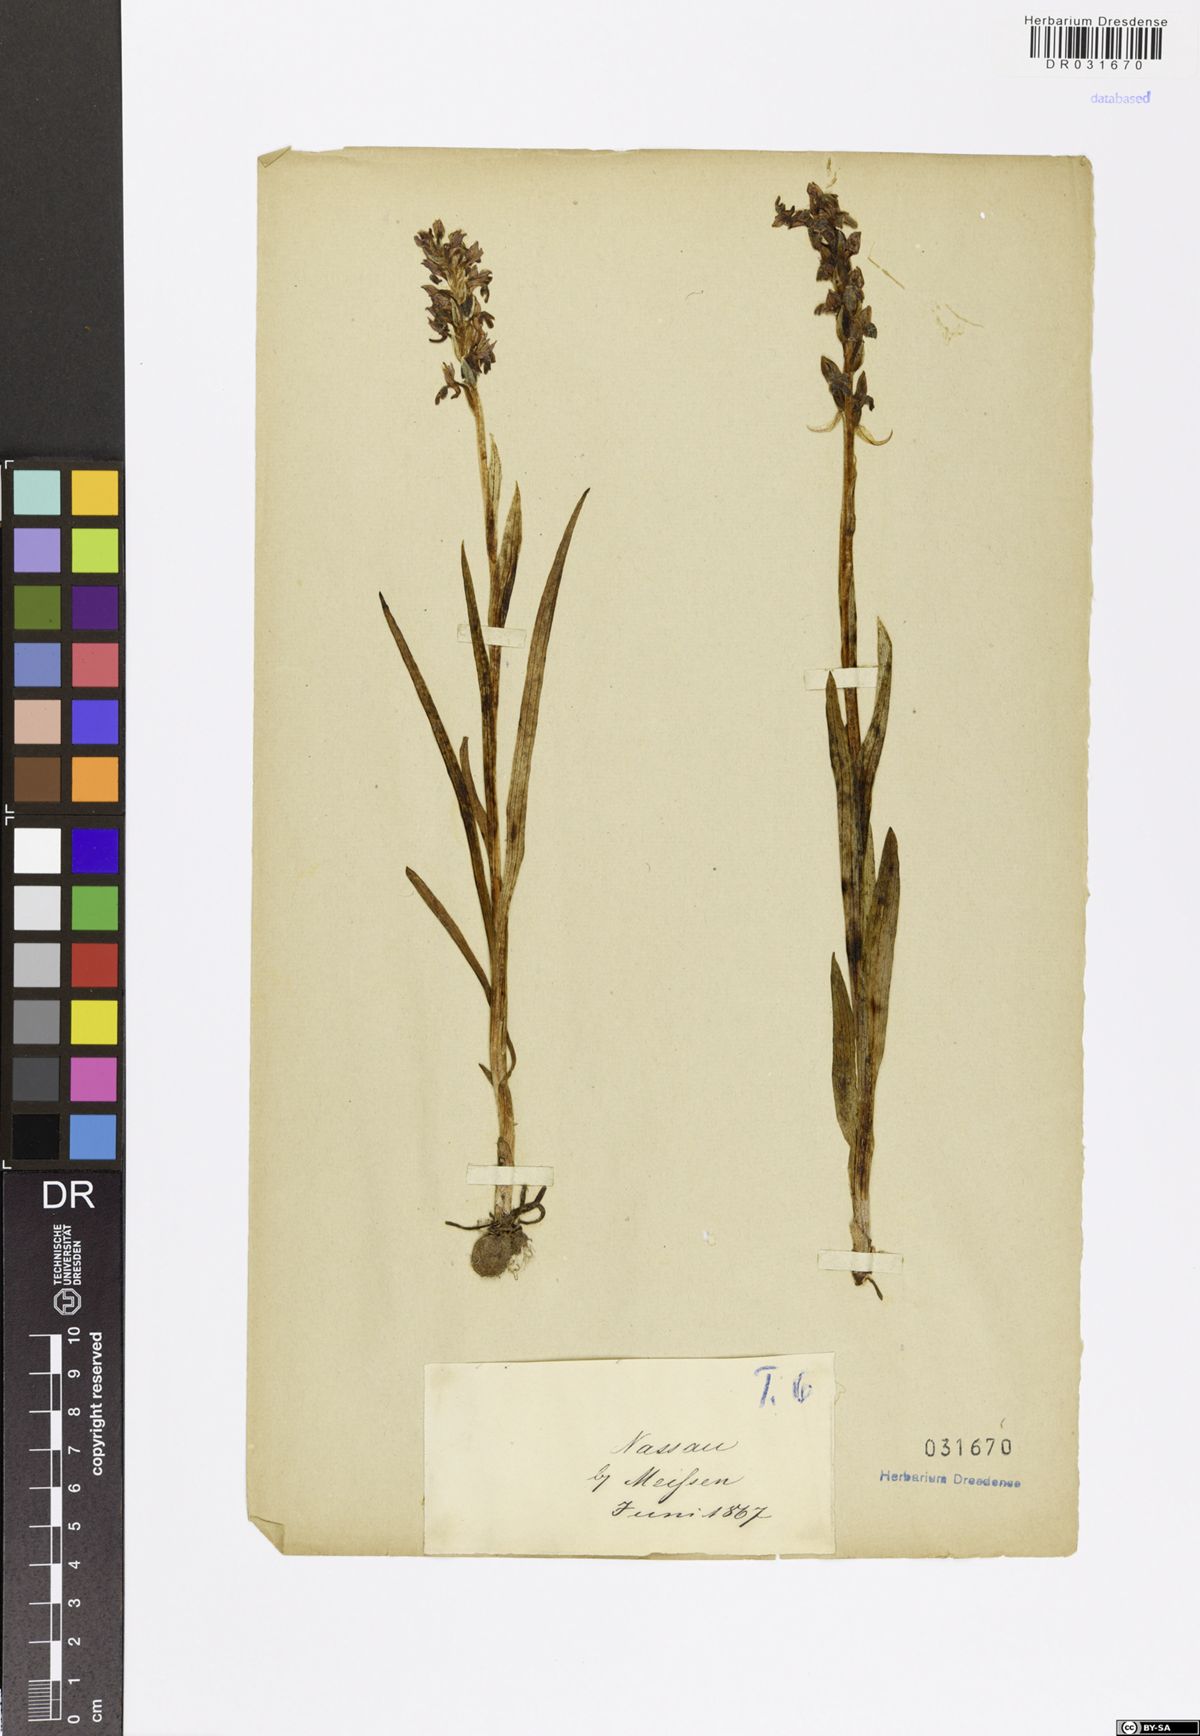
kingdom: Plantae
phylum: Tracheophyta
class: Liliopsida
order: Asparagales
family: Orchidaceae
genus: Anacamptis
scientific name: Anacamptis coriophora
